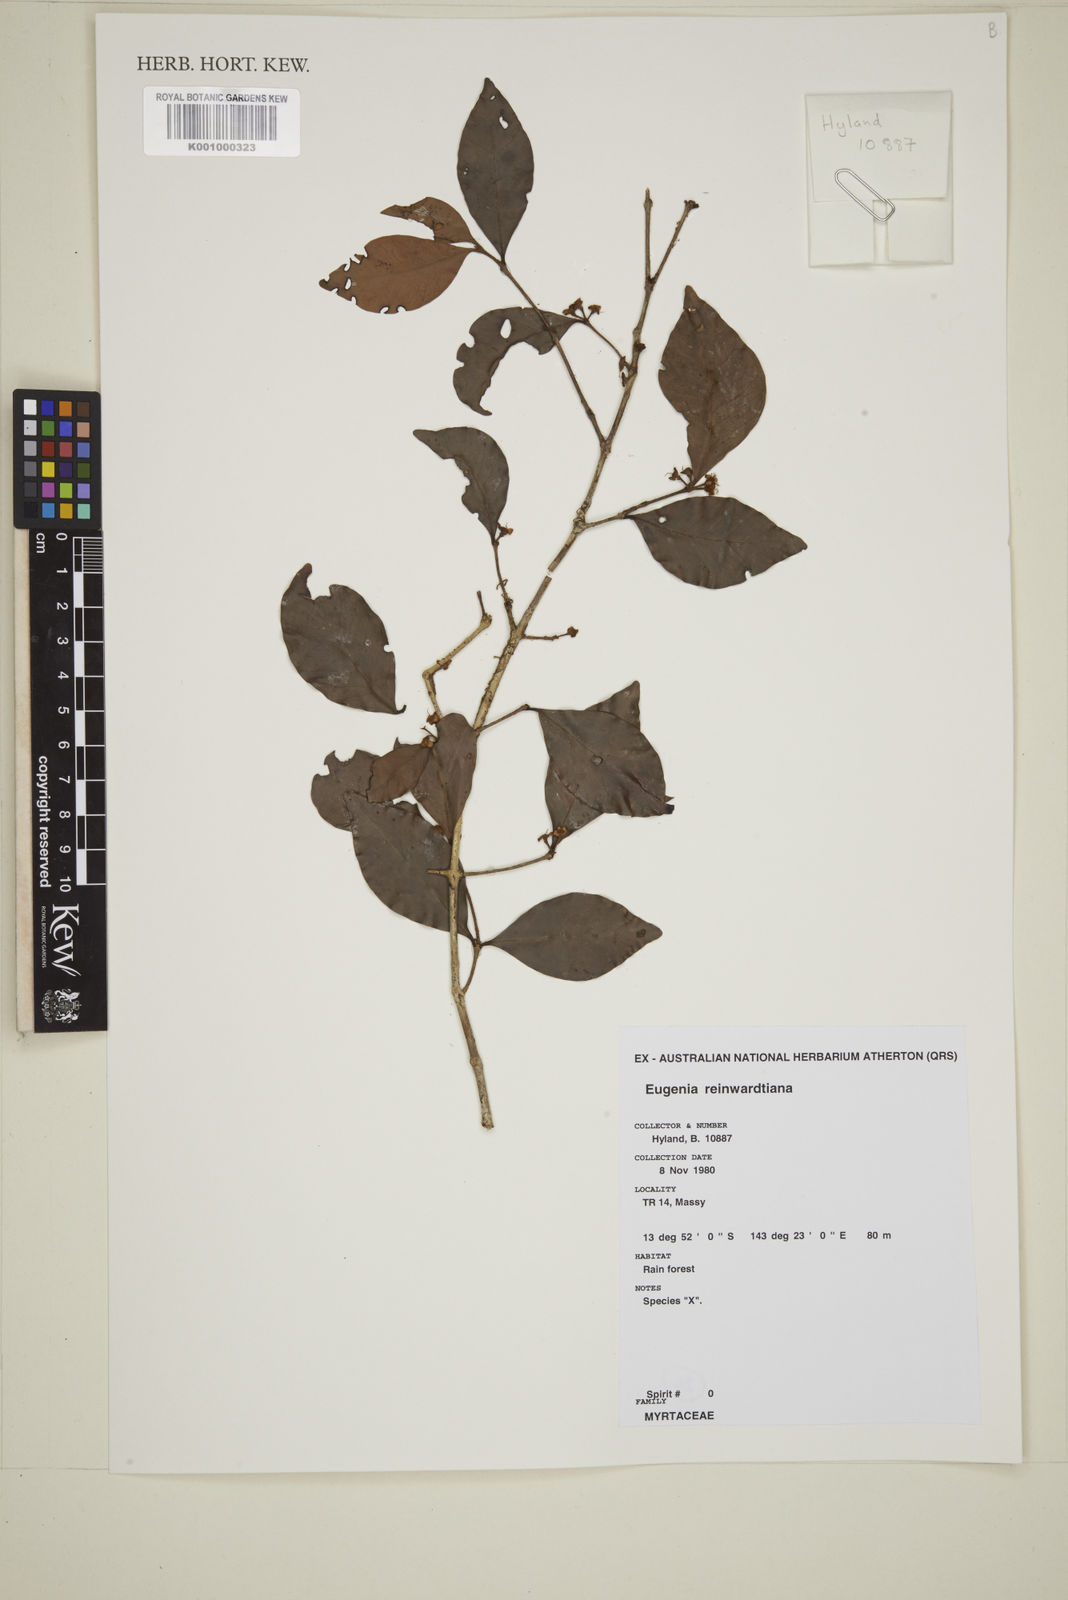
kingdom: Plantae
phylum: Tracheophyta
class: Magnoliopsida
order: Myrtales
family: Myrtaceae
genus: Eugenia
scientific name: Eugenia reinwardtiana
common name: Cedar bay-cherry
